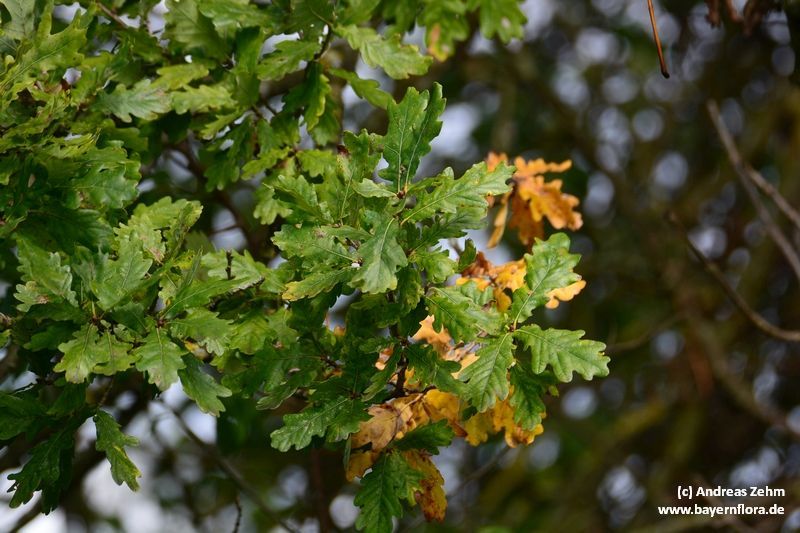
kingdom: Plantae
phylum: Tracheophyta
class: Magnoliopsida
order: Fagales
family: Fagaceae
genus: Quercus
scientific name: Quercus robur
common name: Pedunculate oak
